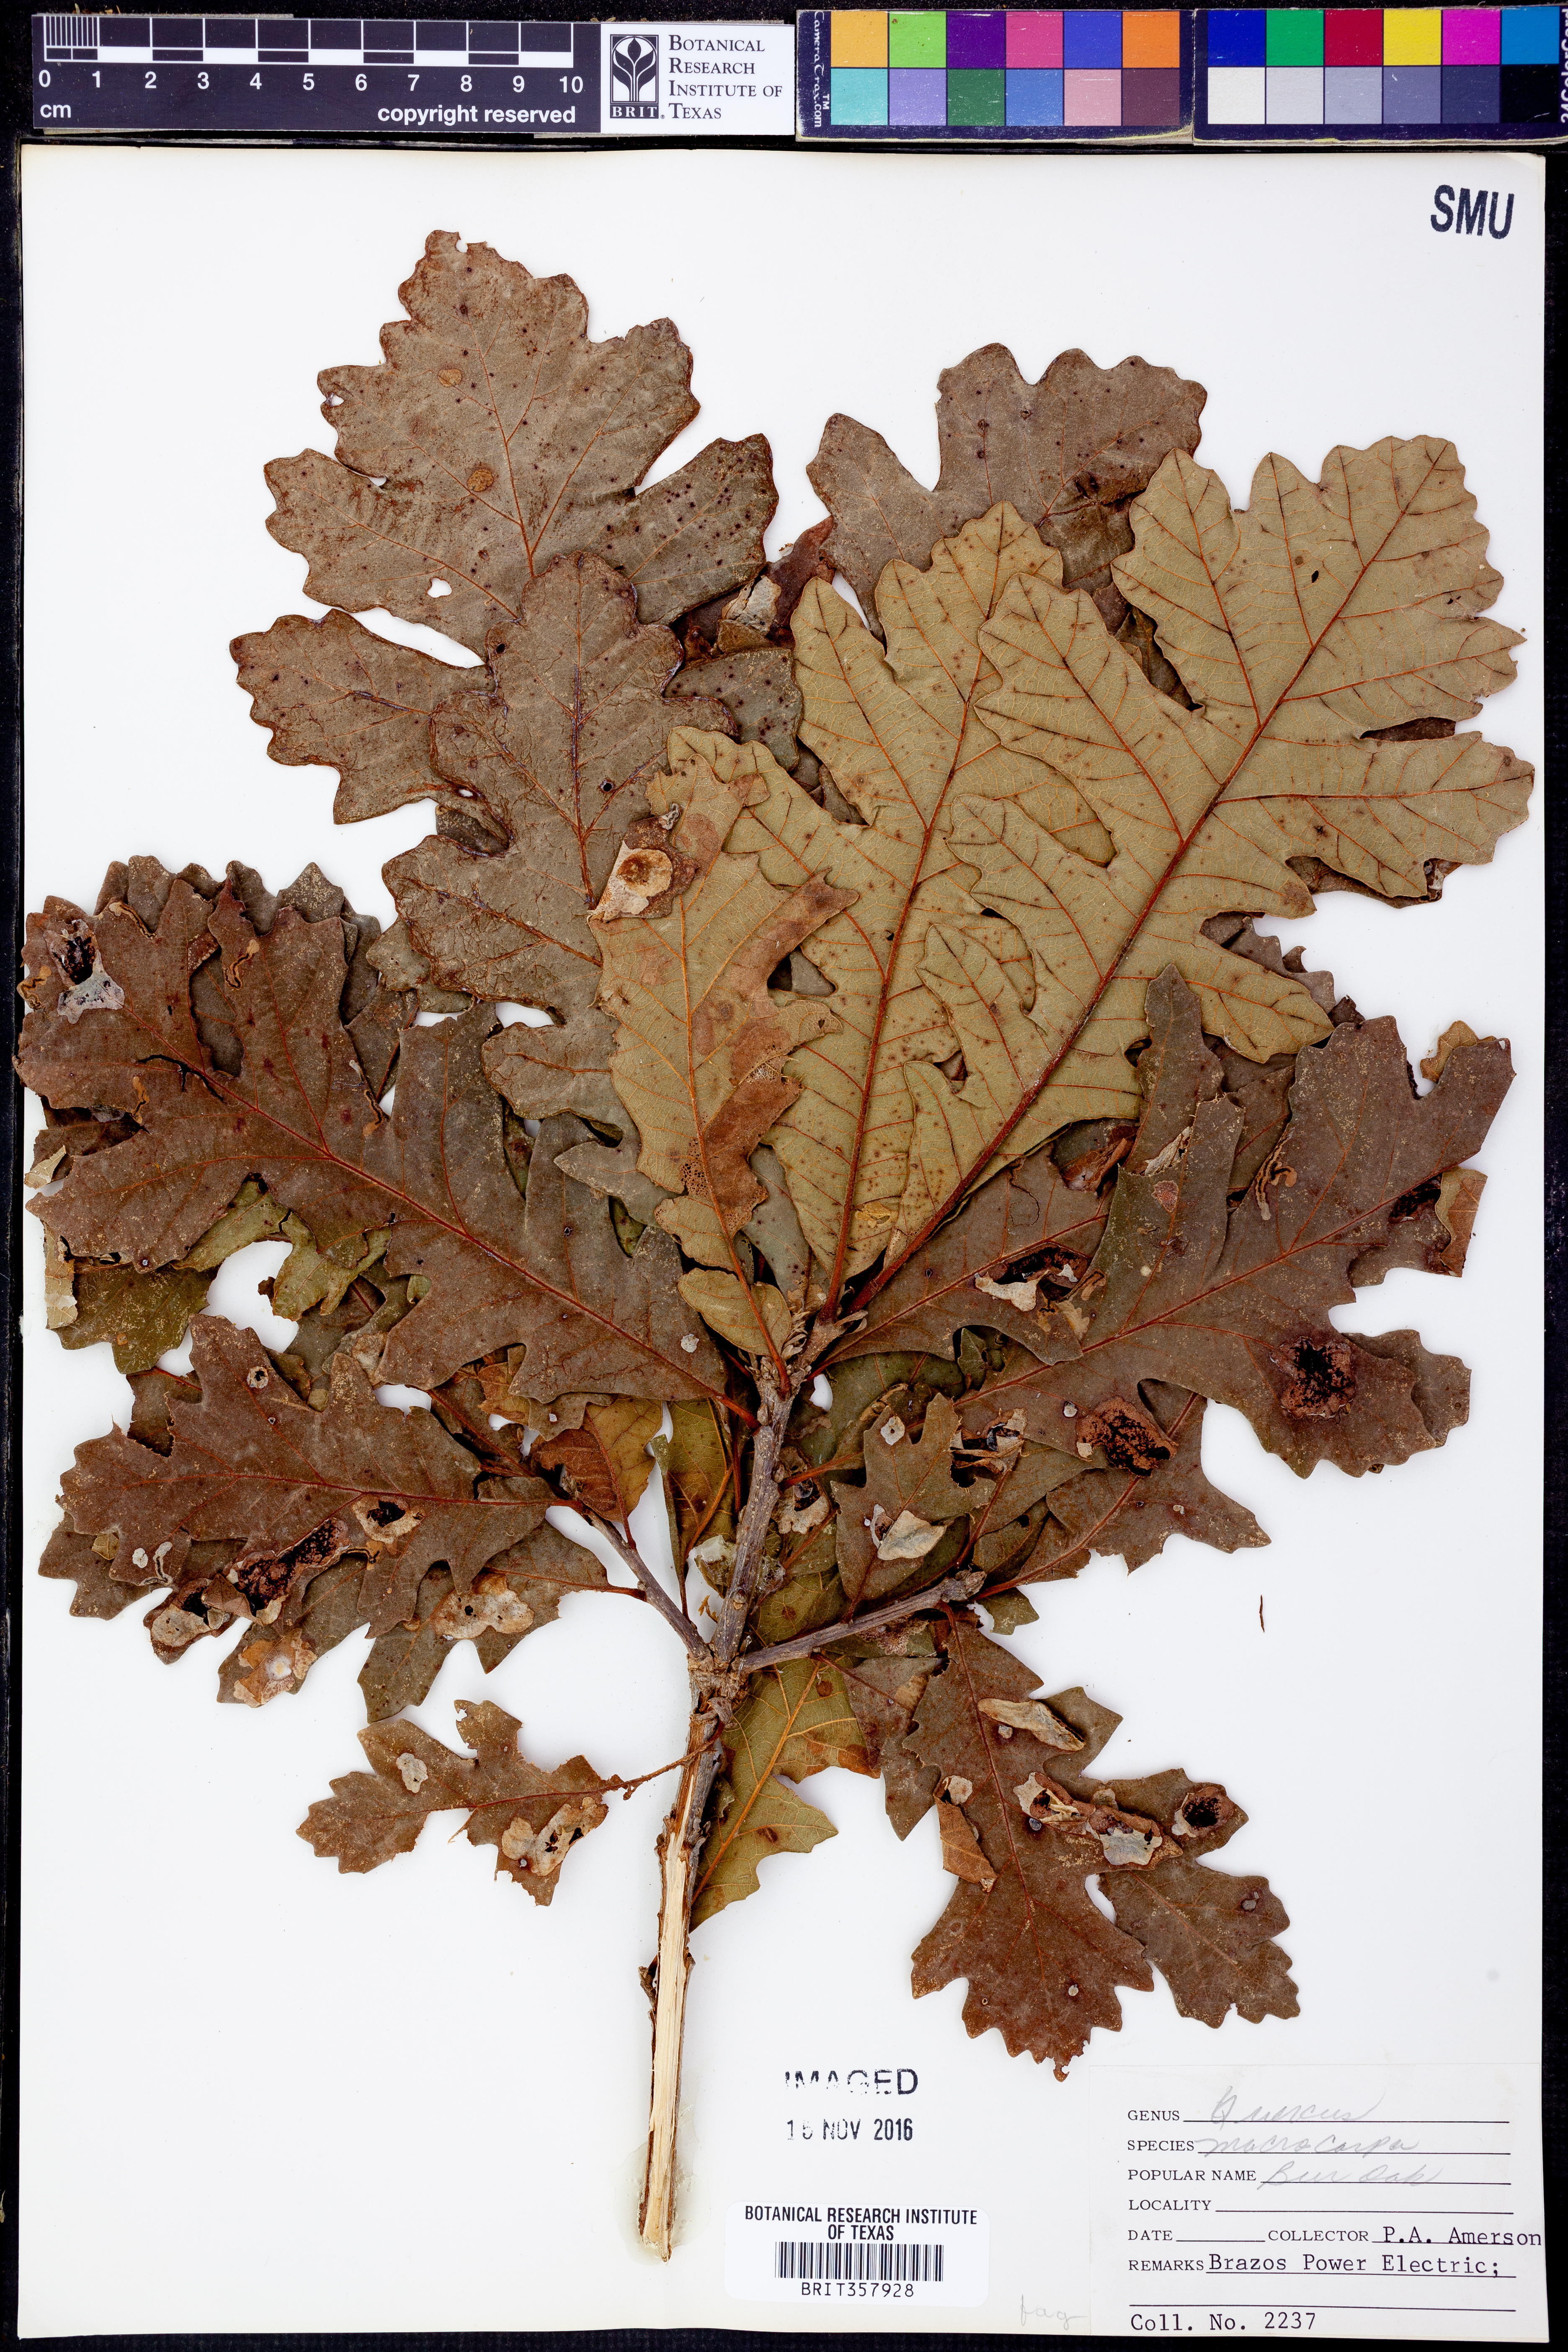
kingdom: Plantae
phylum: Tracheophyta
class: Magnoliopsida
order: Fagales
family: Fagaceae
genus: Quercus
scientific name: Quercus macrocarpa
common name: Bur oak
